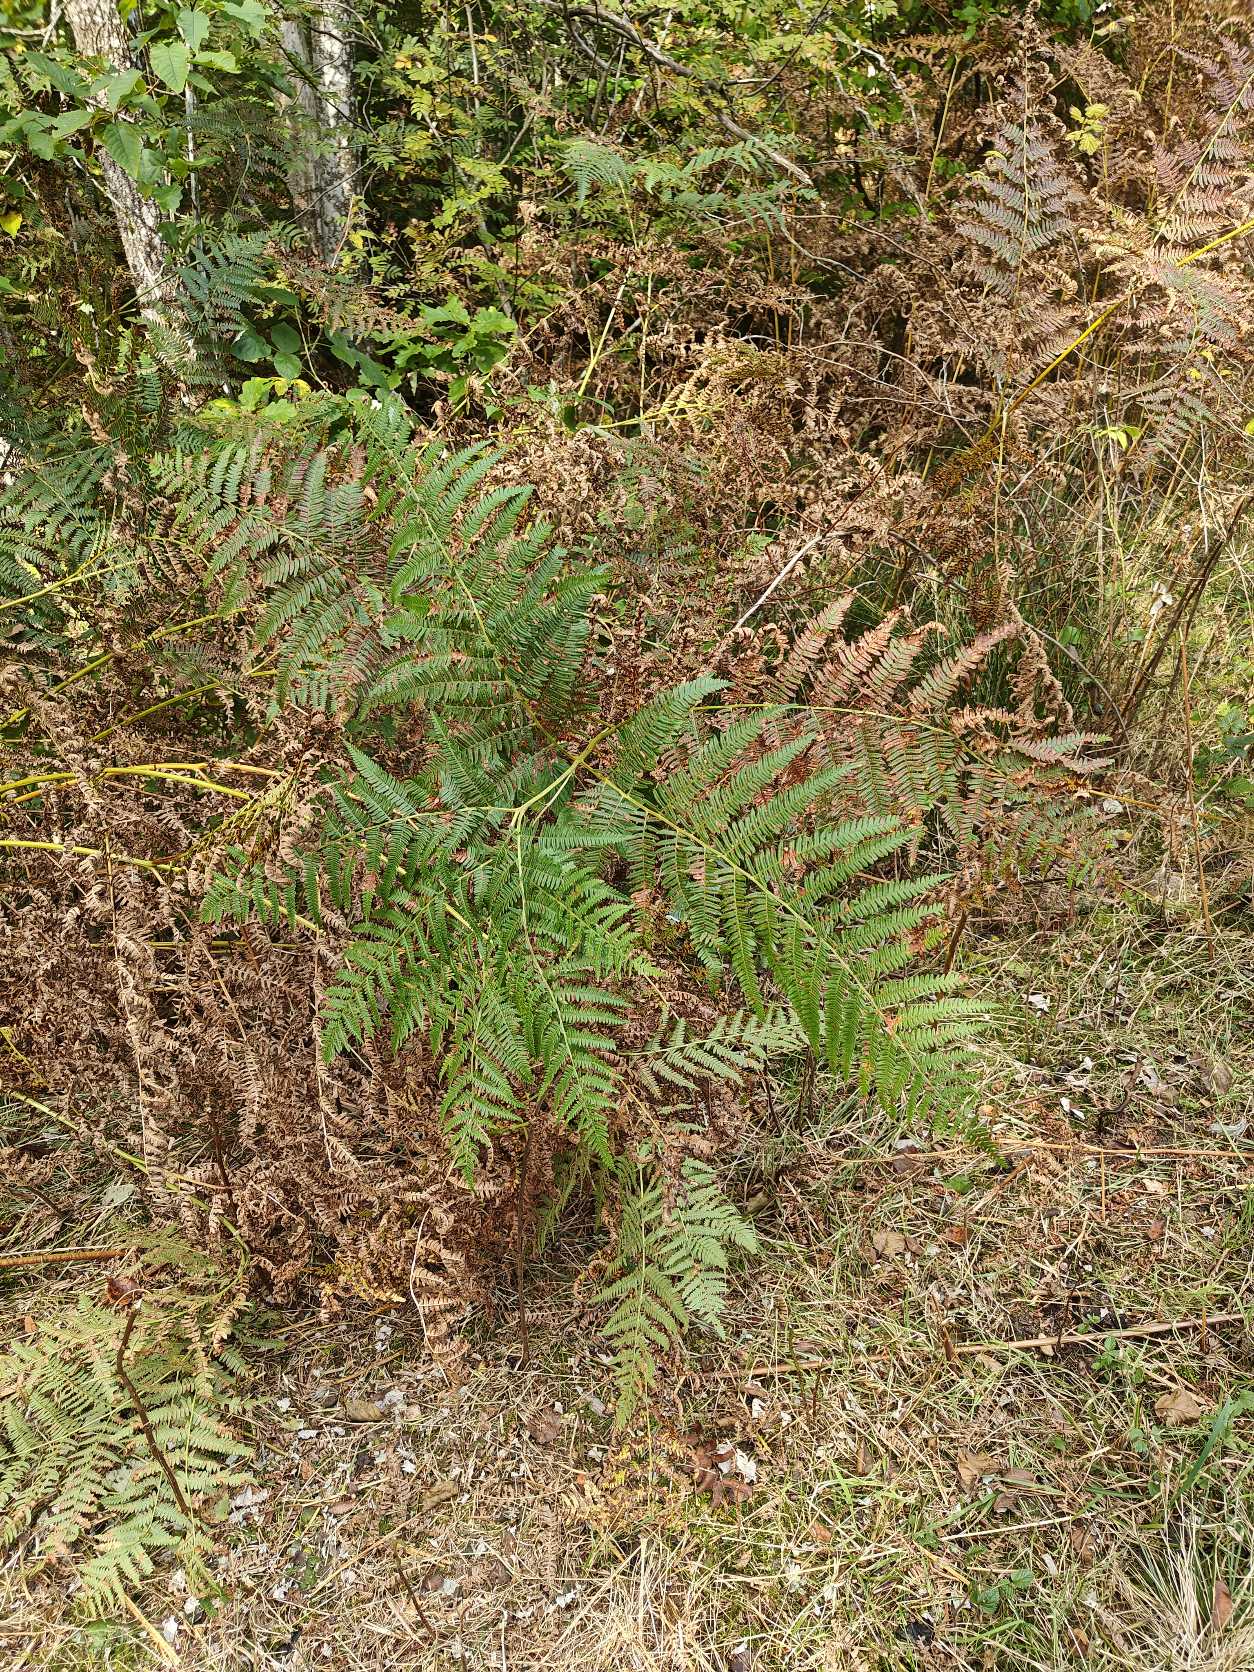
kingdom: Plantae
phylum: Tracheophyta
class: Polypodiopsida
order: Polypodiales
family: Dennstaedtiaceae
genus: Pteridium
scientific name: Pteridium aquilinum
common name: Ørnebregne
